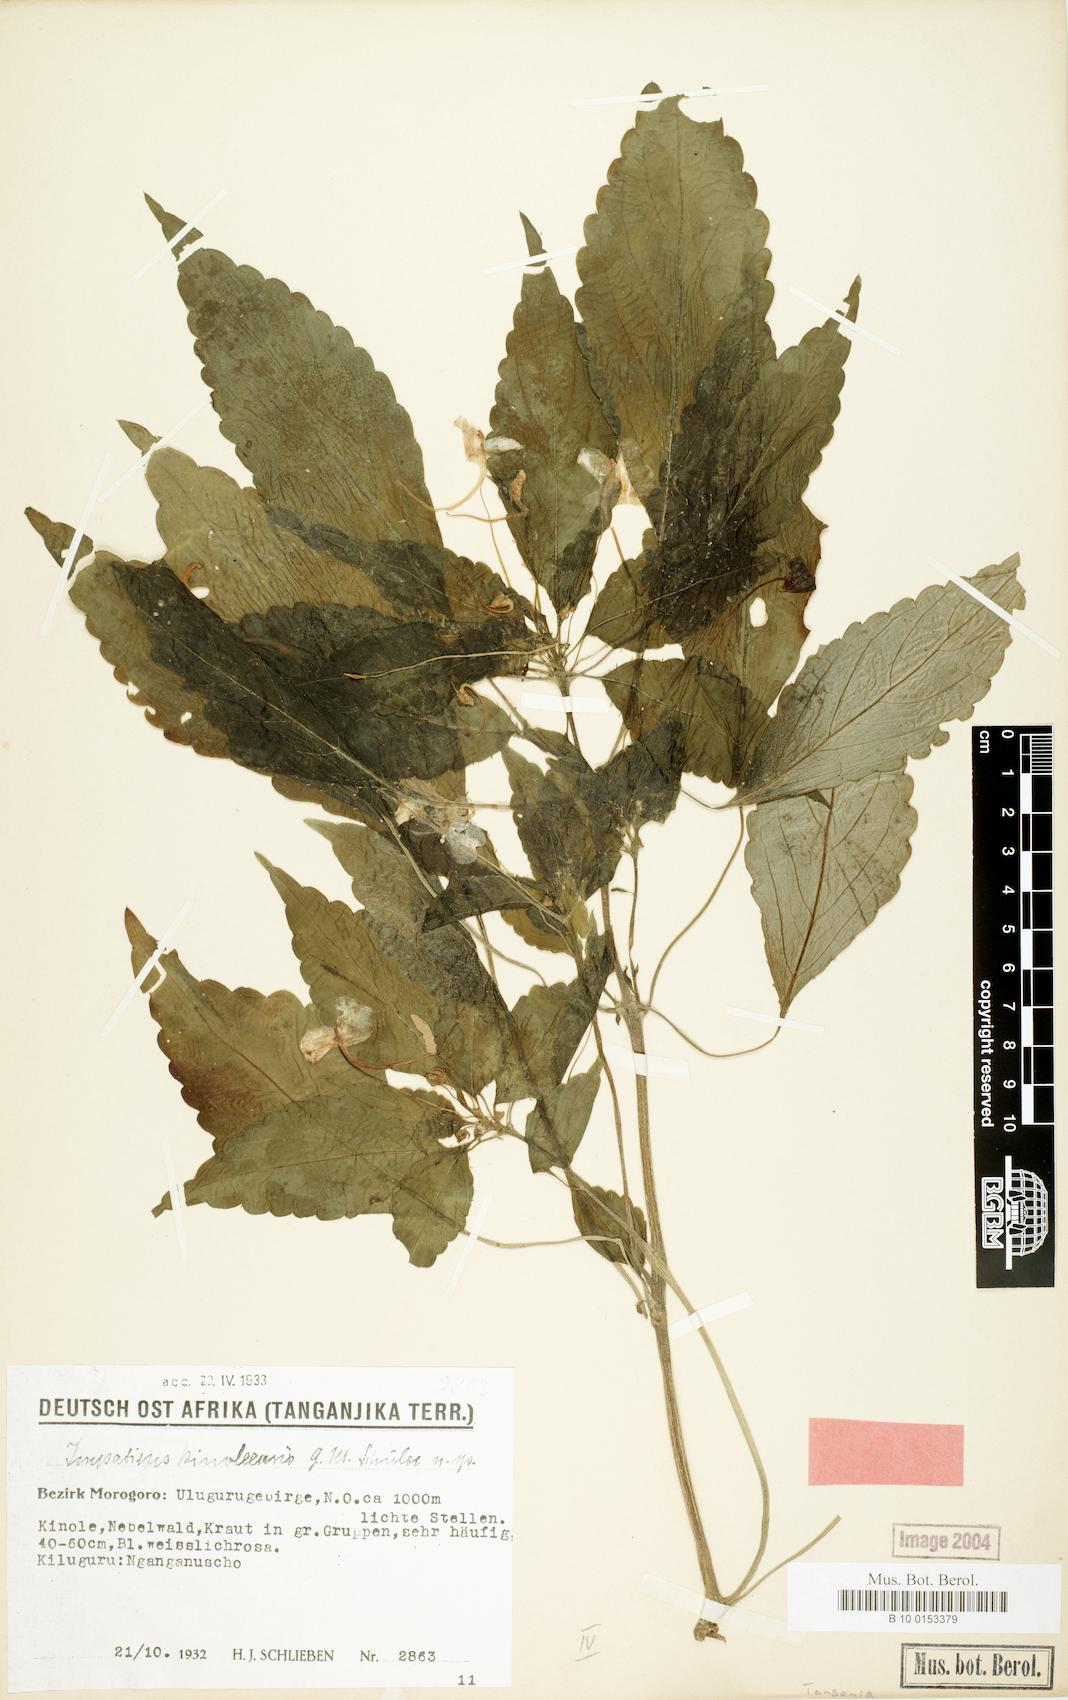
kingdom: Plantae
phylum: Tracheophyta
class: Magnoliopsida
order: Ericales
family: Balsaminaceae
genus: Impatiens
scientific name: Impatiens engleri
